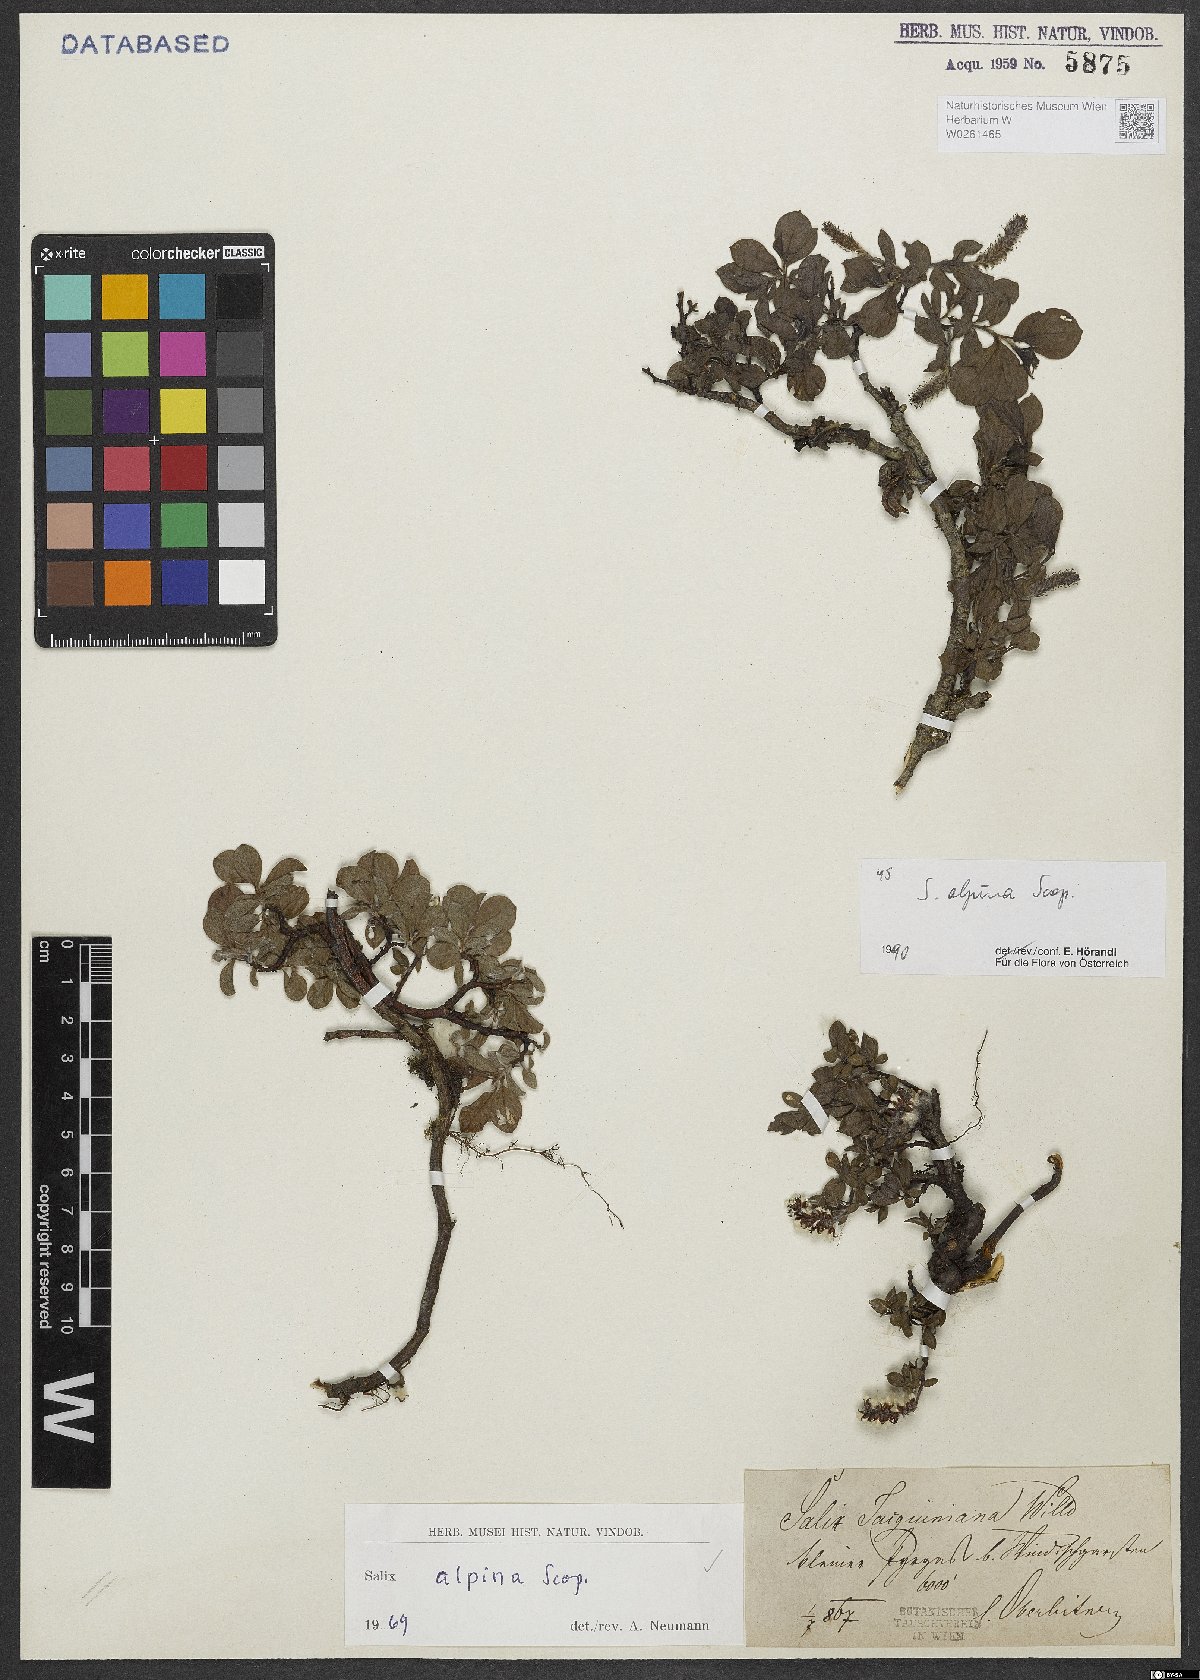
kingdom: Plantae
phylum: Tracheophyta
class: Magnoliopsida
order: Malpighiales
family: Salicaceae
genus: Salix
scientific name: Salix alpina
